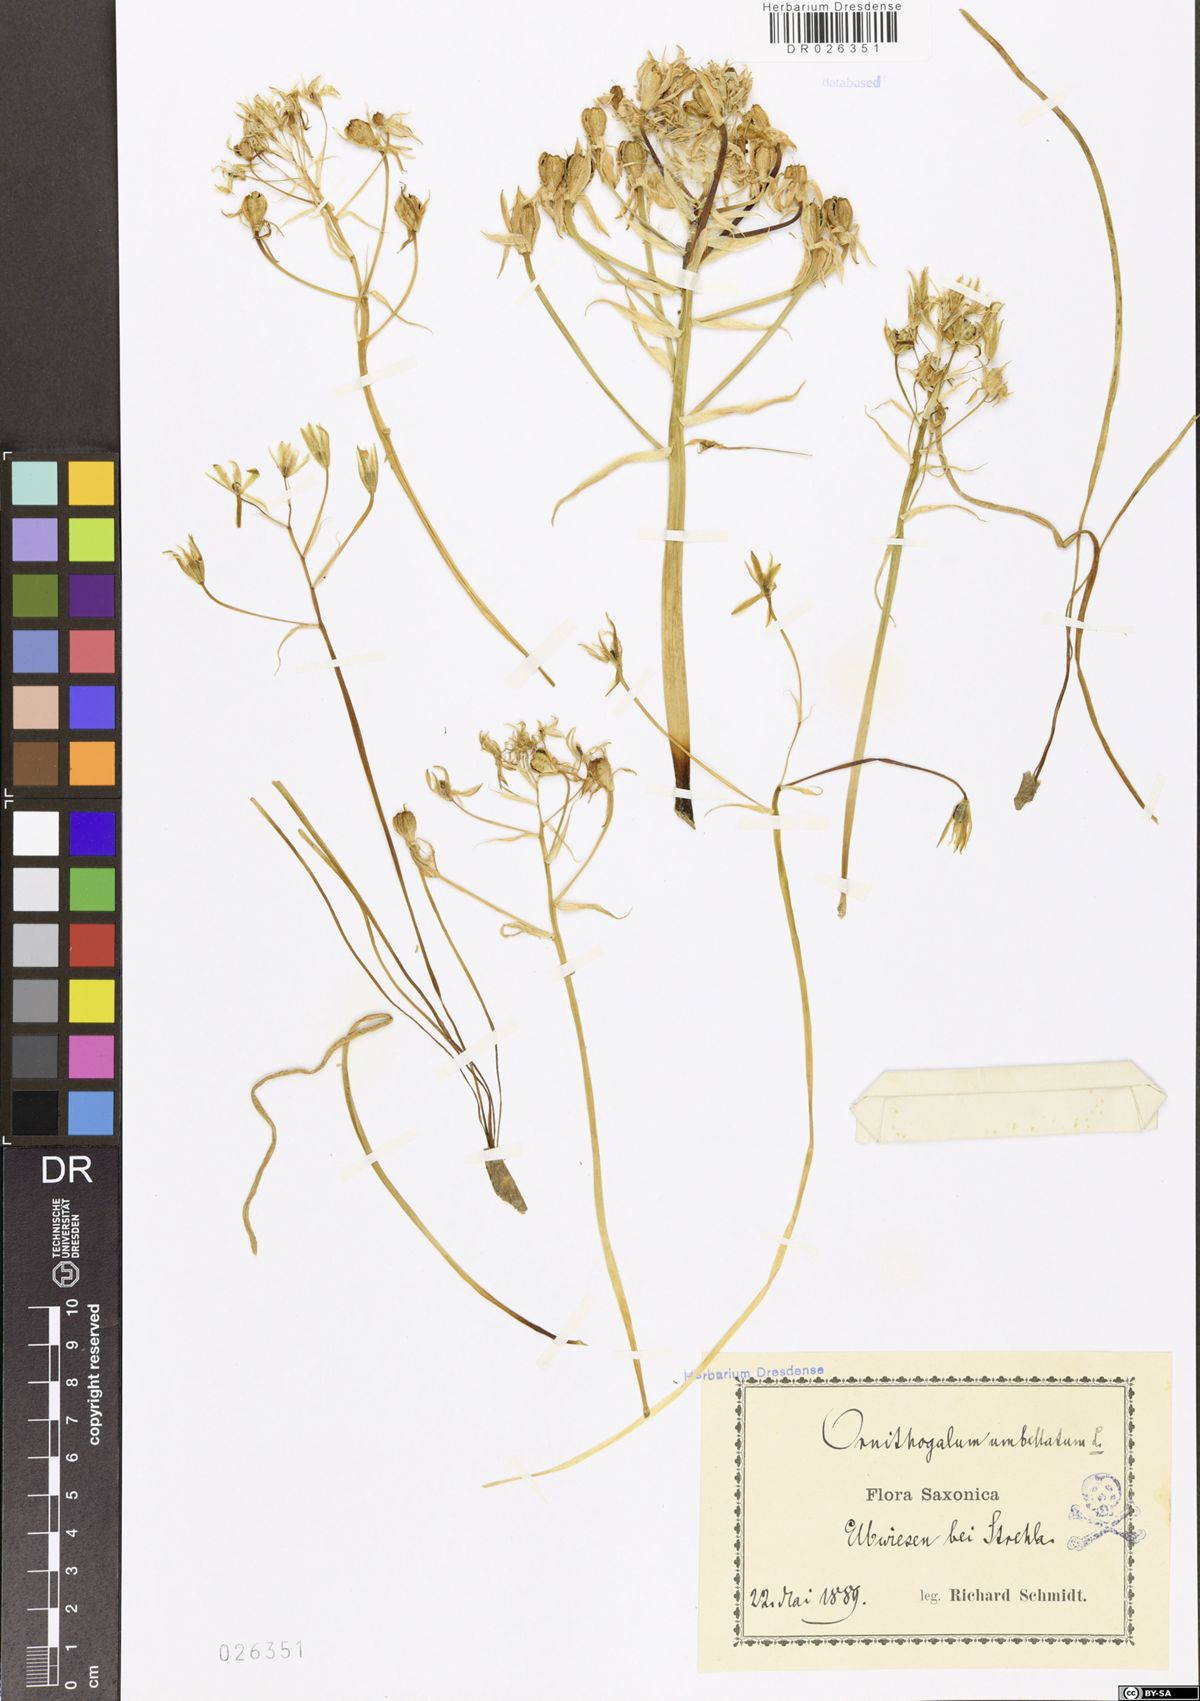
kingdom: Plantae
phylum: Tracheophyta
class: Liliopsida
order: Asparagales
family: Asparagaceae
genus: Ornithogalum
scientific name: Ornithogalum umbellatum
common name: Garden star-of-bethlehem
